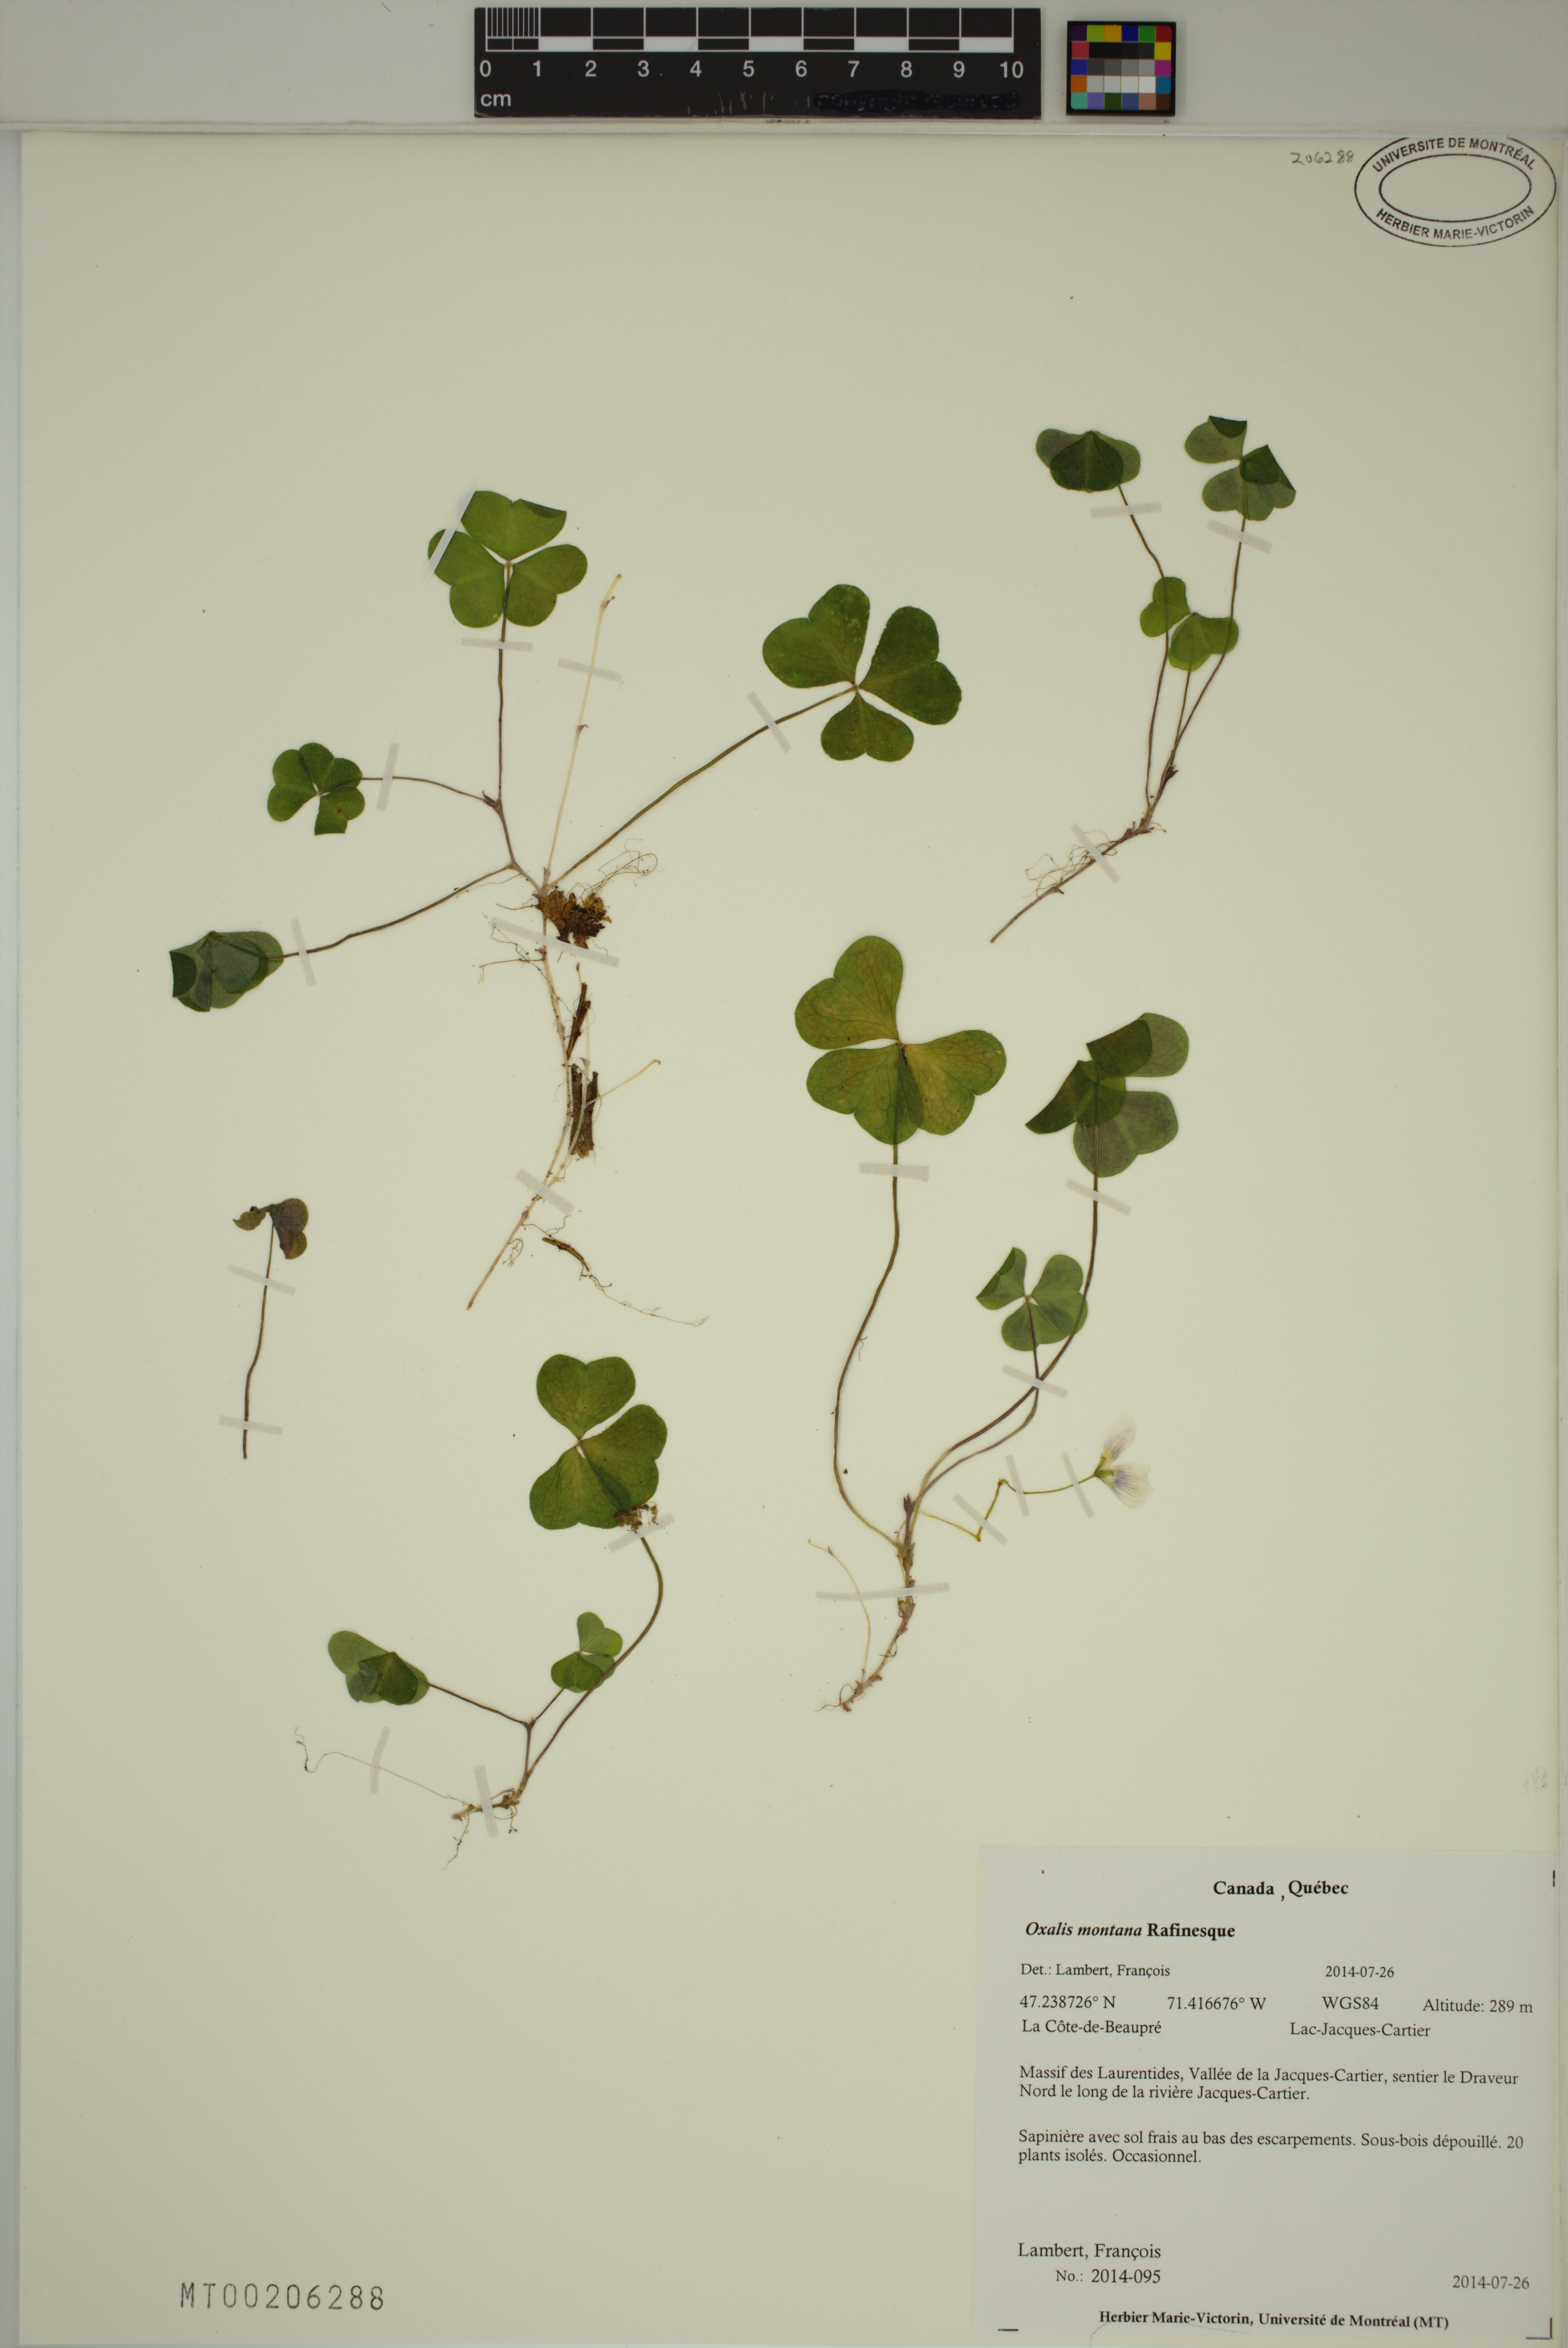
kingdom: Plantae
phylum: Tracheophyta
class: Magnoliopsida
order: Oxalidales
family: Oxalidaceae
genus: Oxalis
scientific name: Oxalis montana
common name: American wood-sorrel
